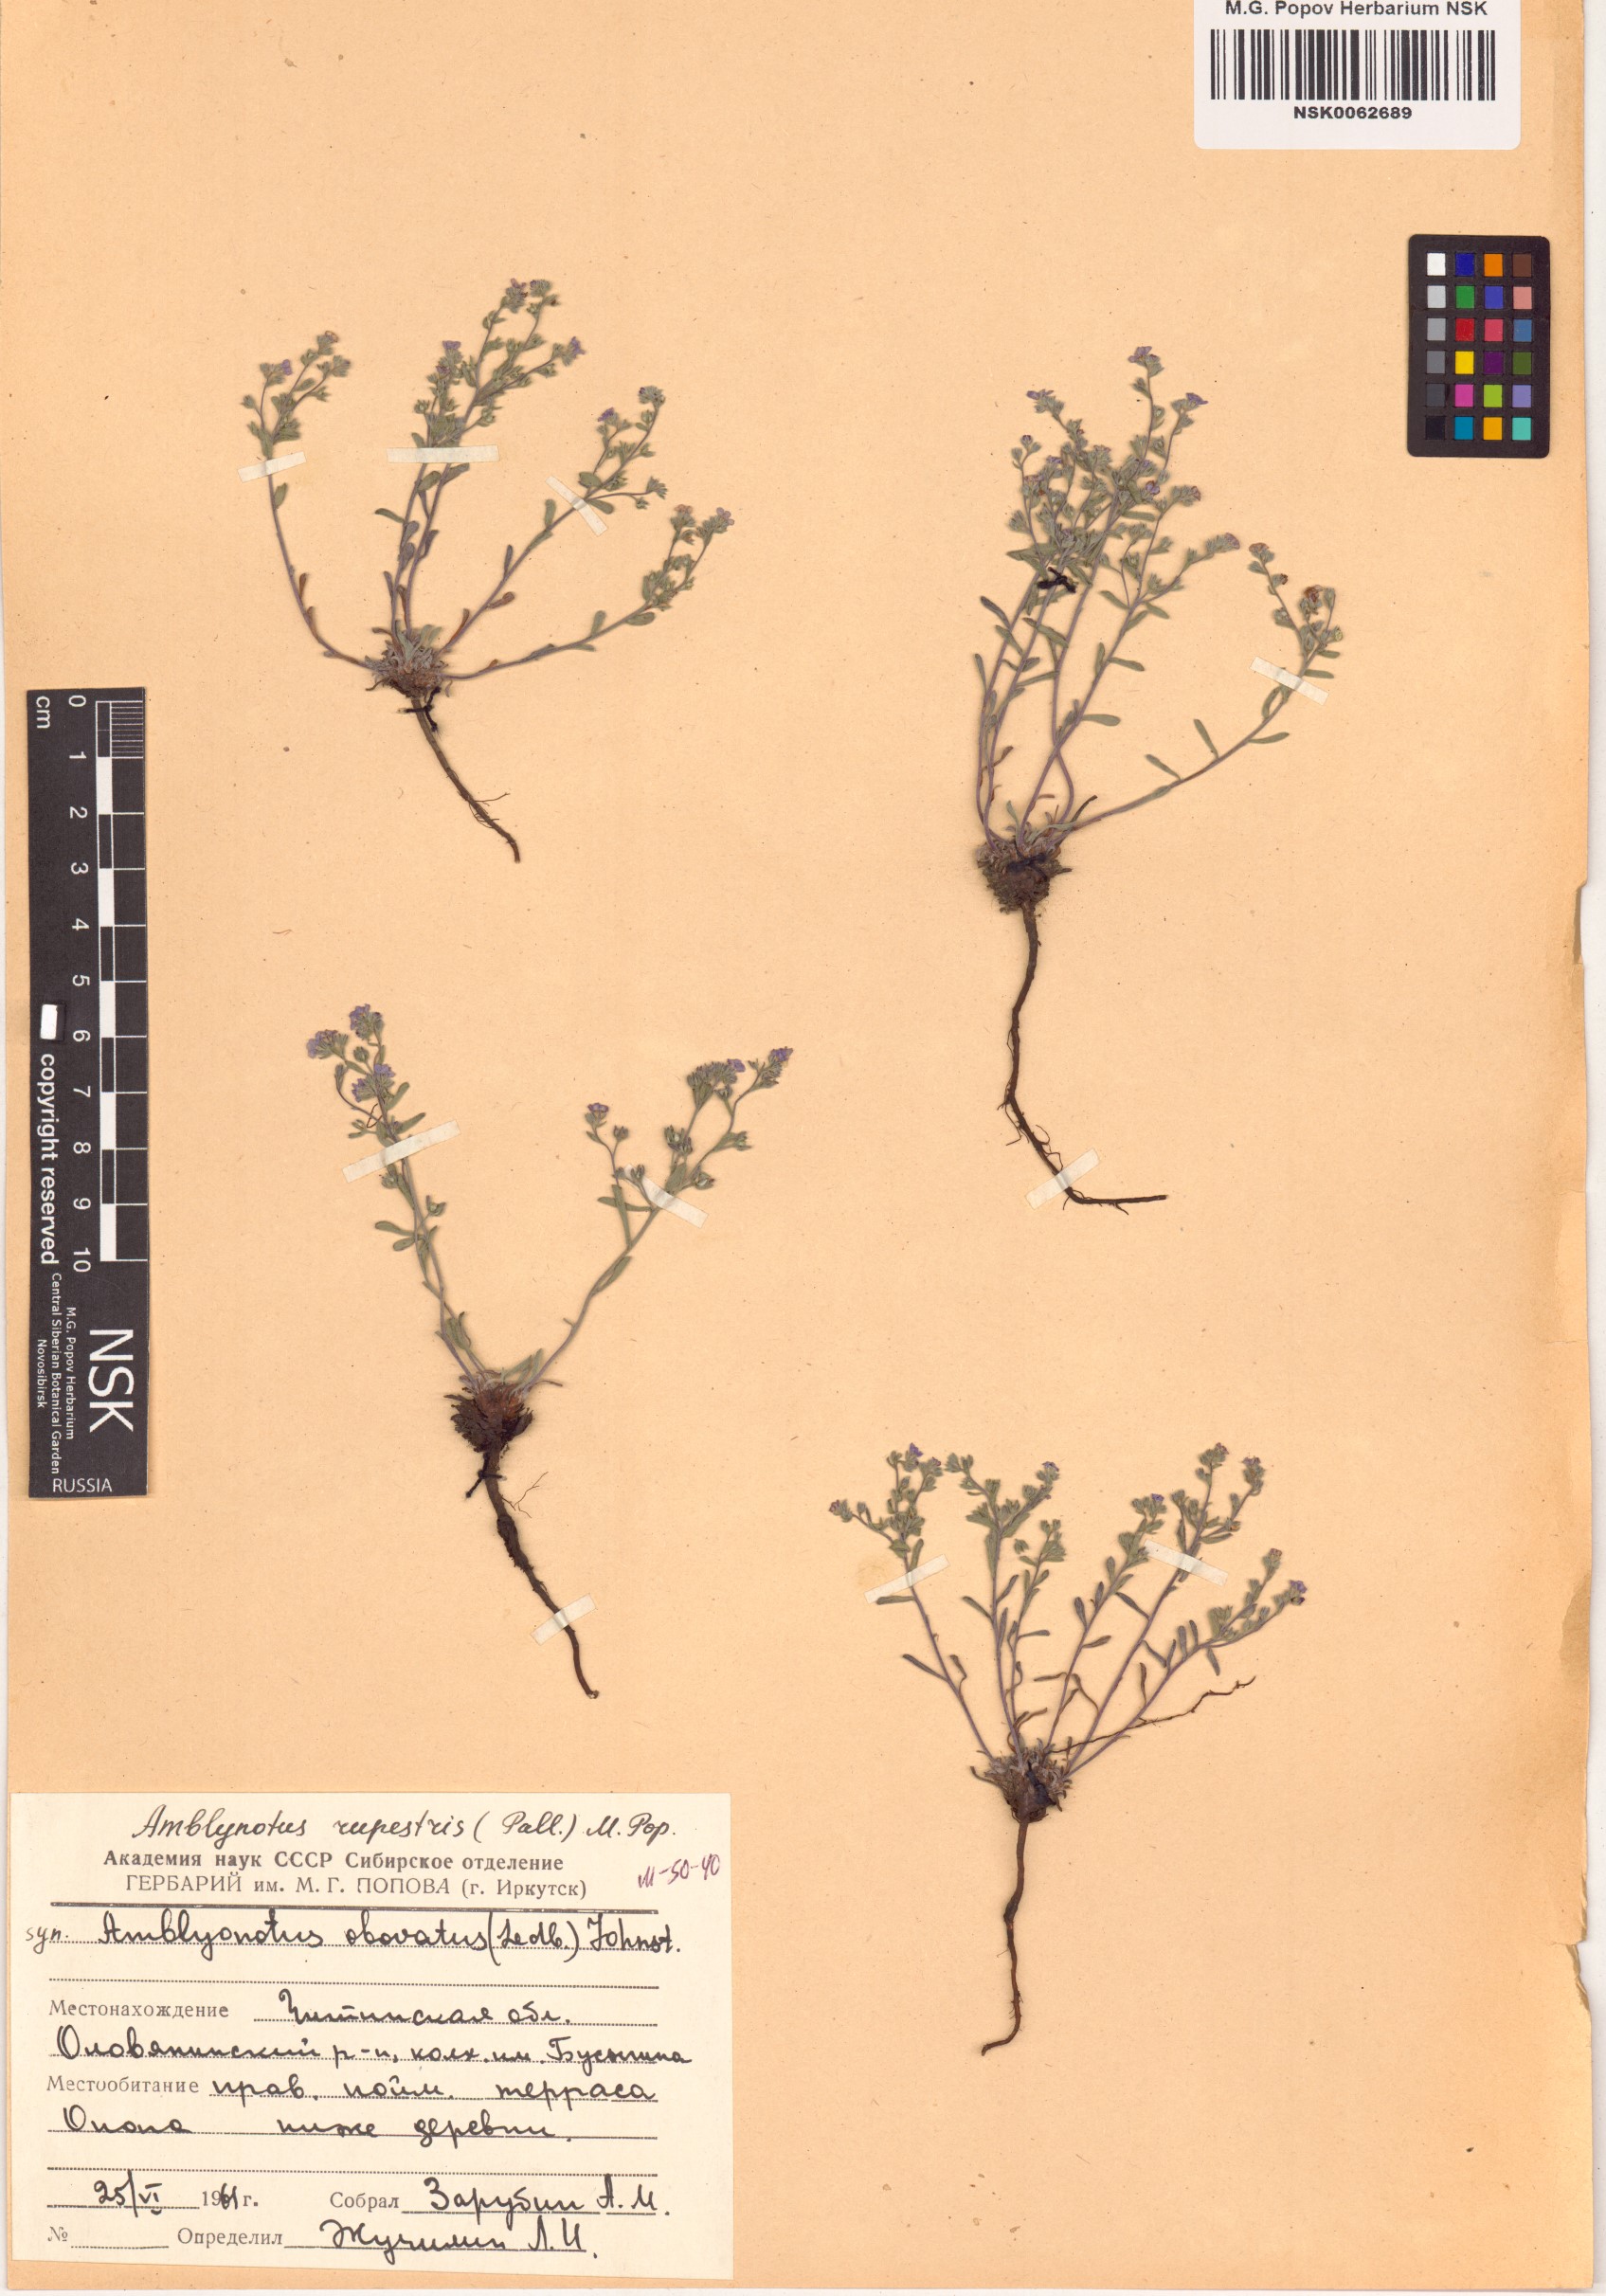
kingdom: Plantae
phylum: Tracheophyta
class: Magnoliopsida
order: Boraginales
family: Boraginaceae
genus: Eritrichium
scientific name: Eritrichium rupestre
